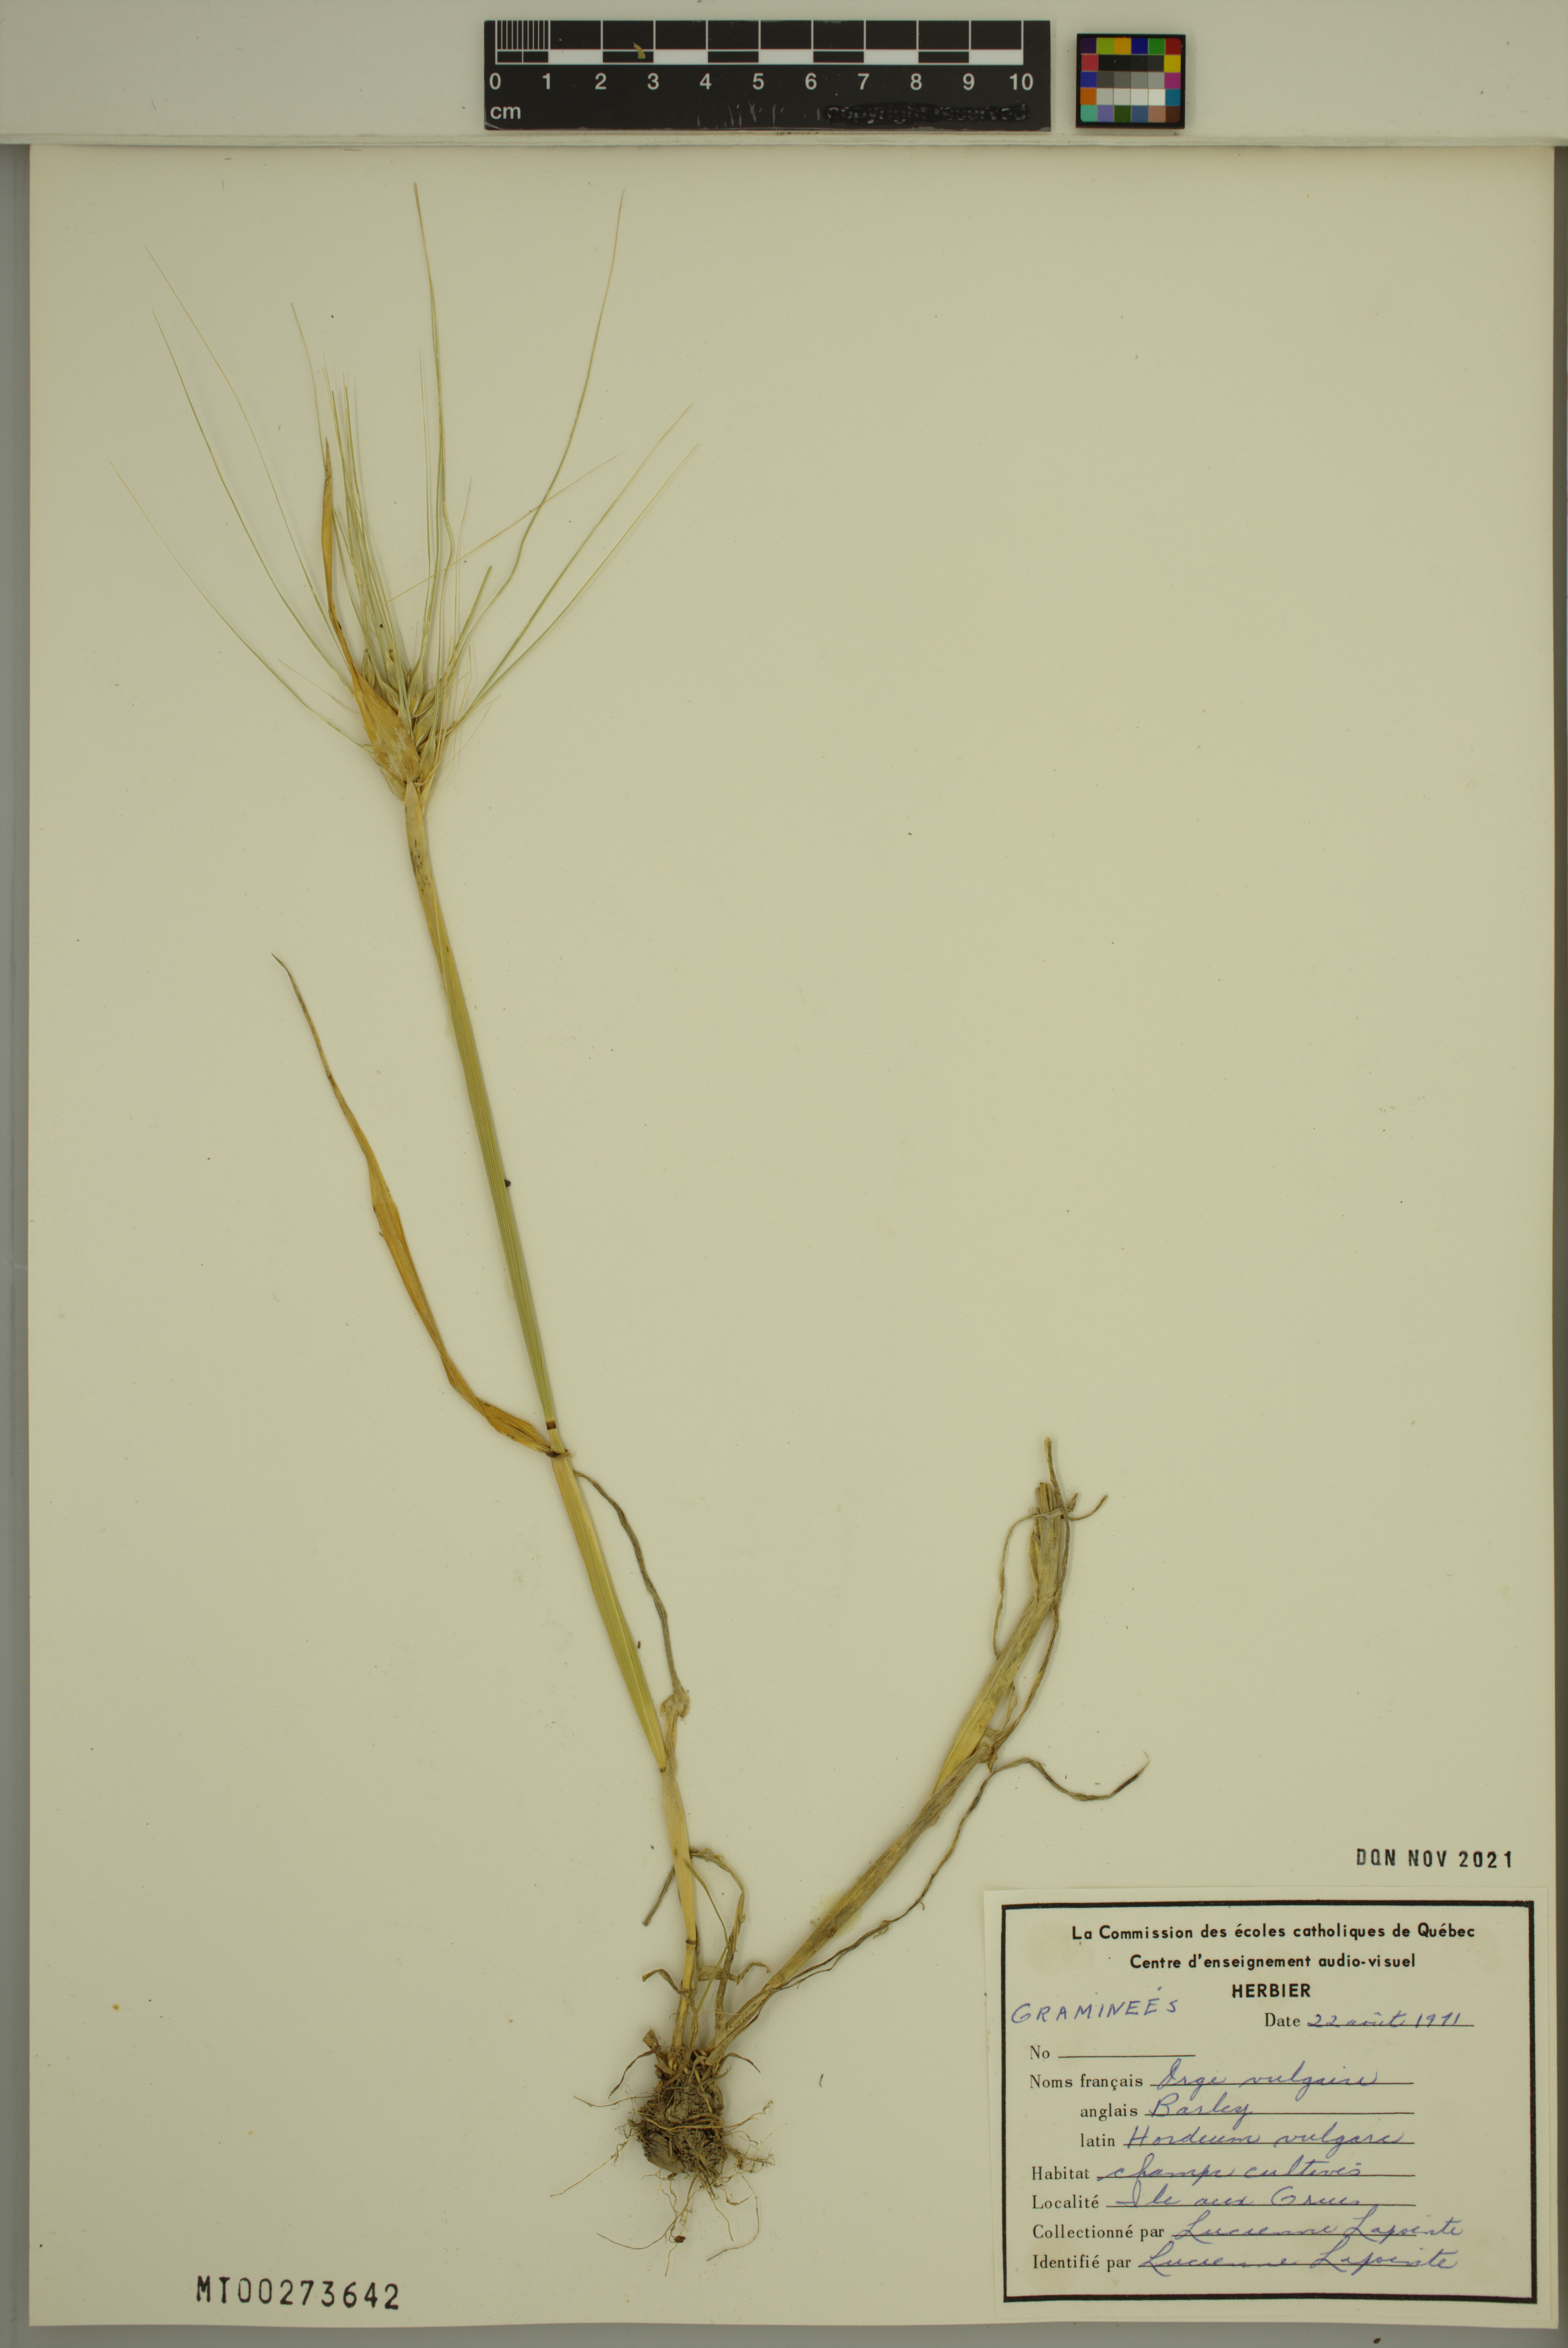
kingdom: Plantae
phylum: Tracheophyta
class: Liliopsida
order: Poales
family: Poaceae
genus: Hordeum
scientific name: Hordeum vulgare
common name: Common barley
